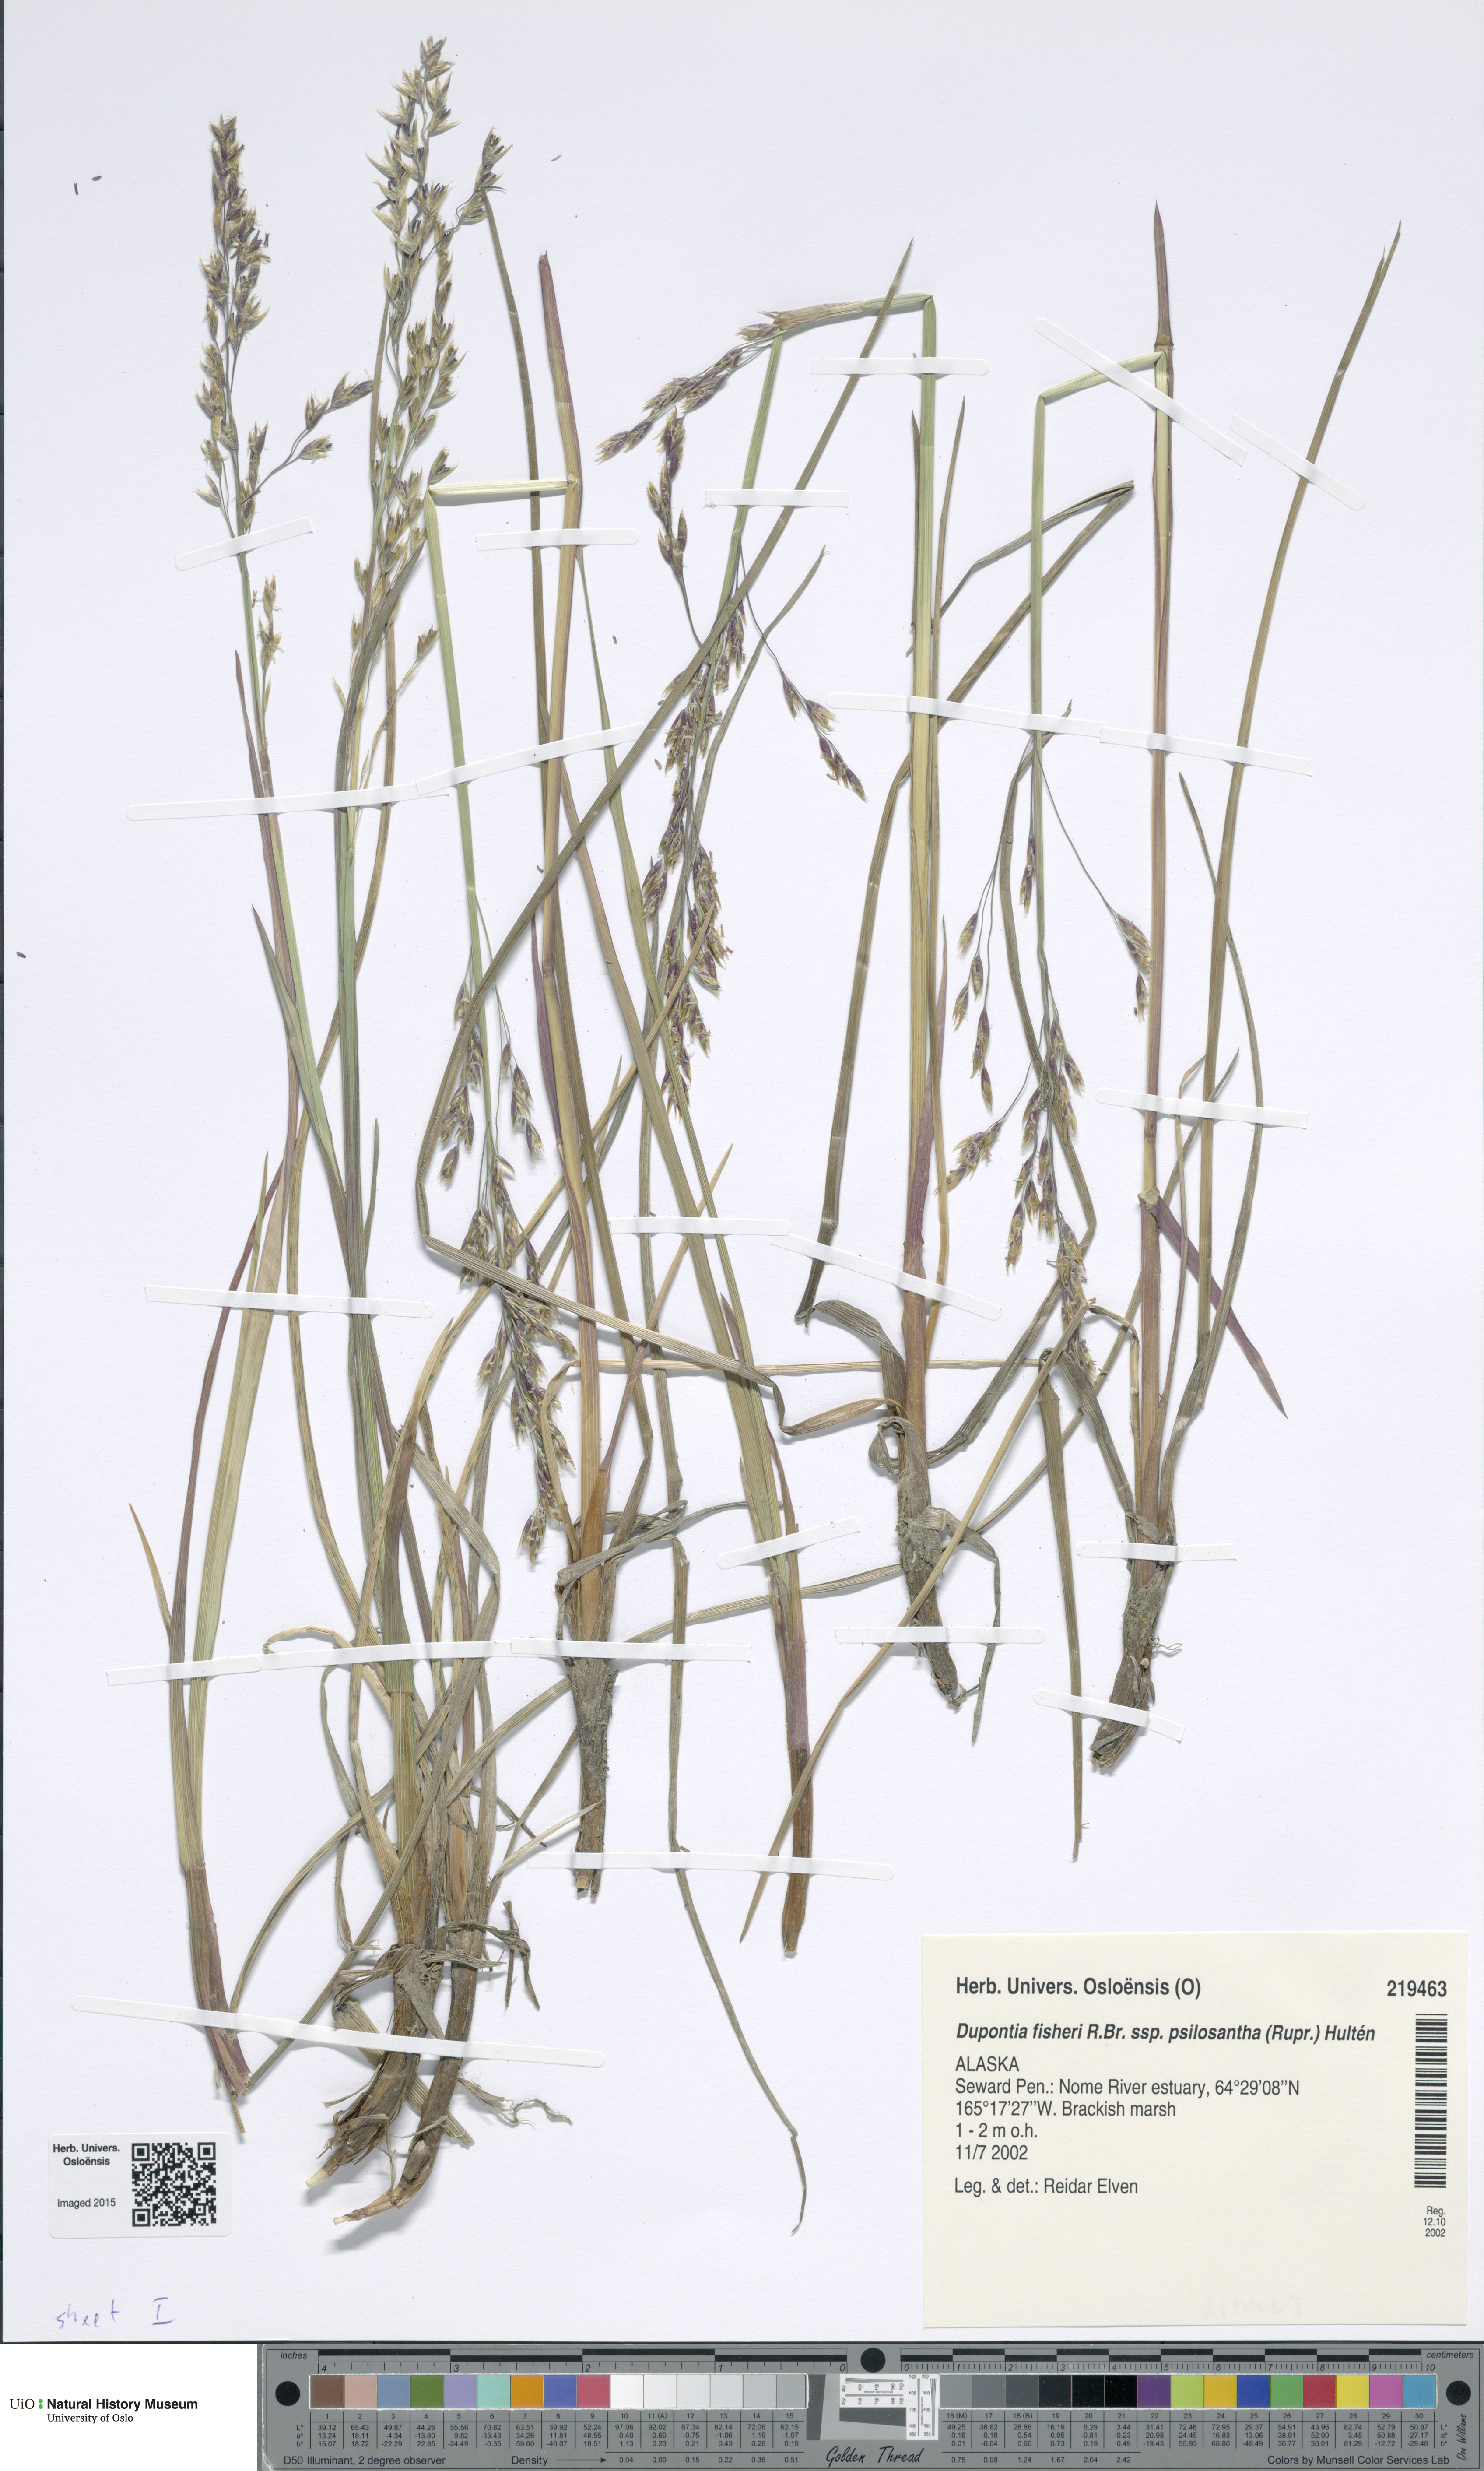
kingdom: Plantae
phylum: Tracheophyta
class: Liliopsida
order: Poales
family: Poaceae
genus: Dupontia
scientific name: Dupontia fisheri
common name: Tundra grass
